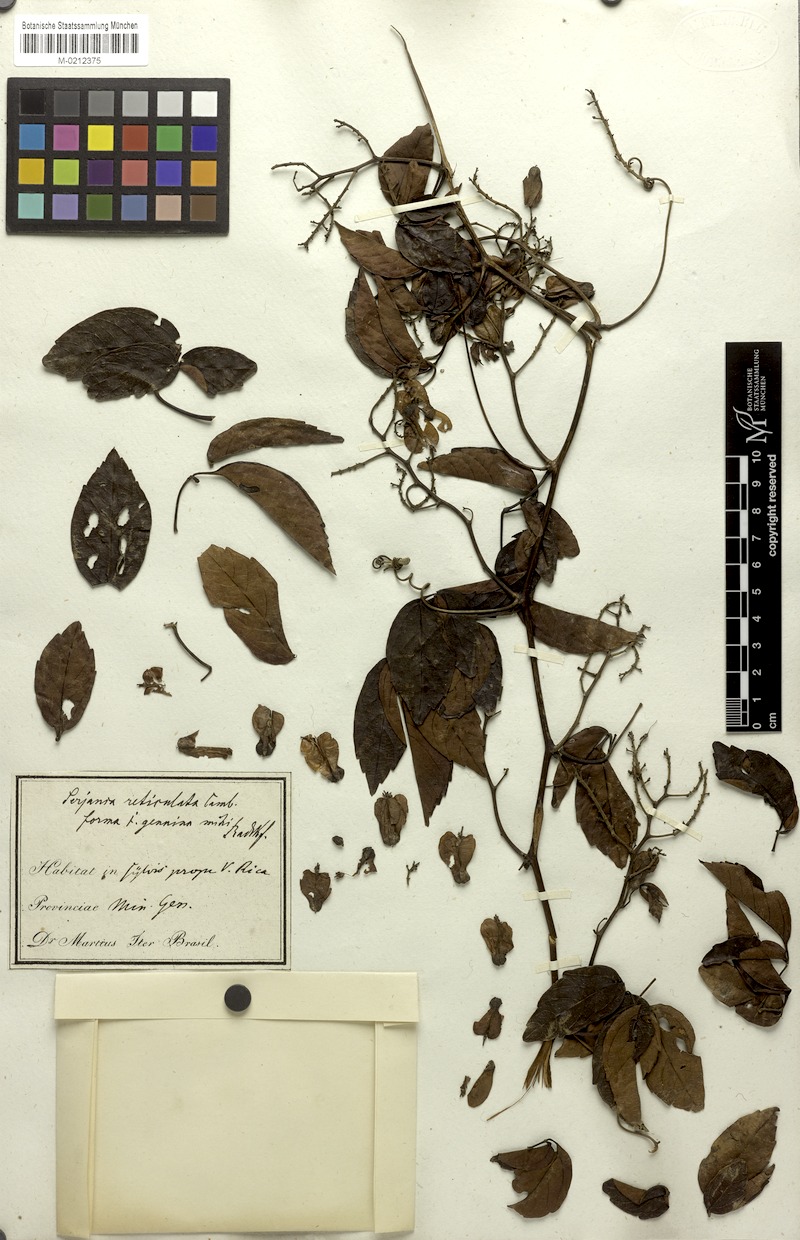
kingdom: Plantae
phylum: Tracheophyta
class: Magnoliopsida
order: Sapindales
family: Sapindaceae
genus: Serjania
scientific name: Serjania reticulata
